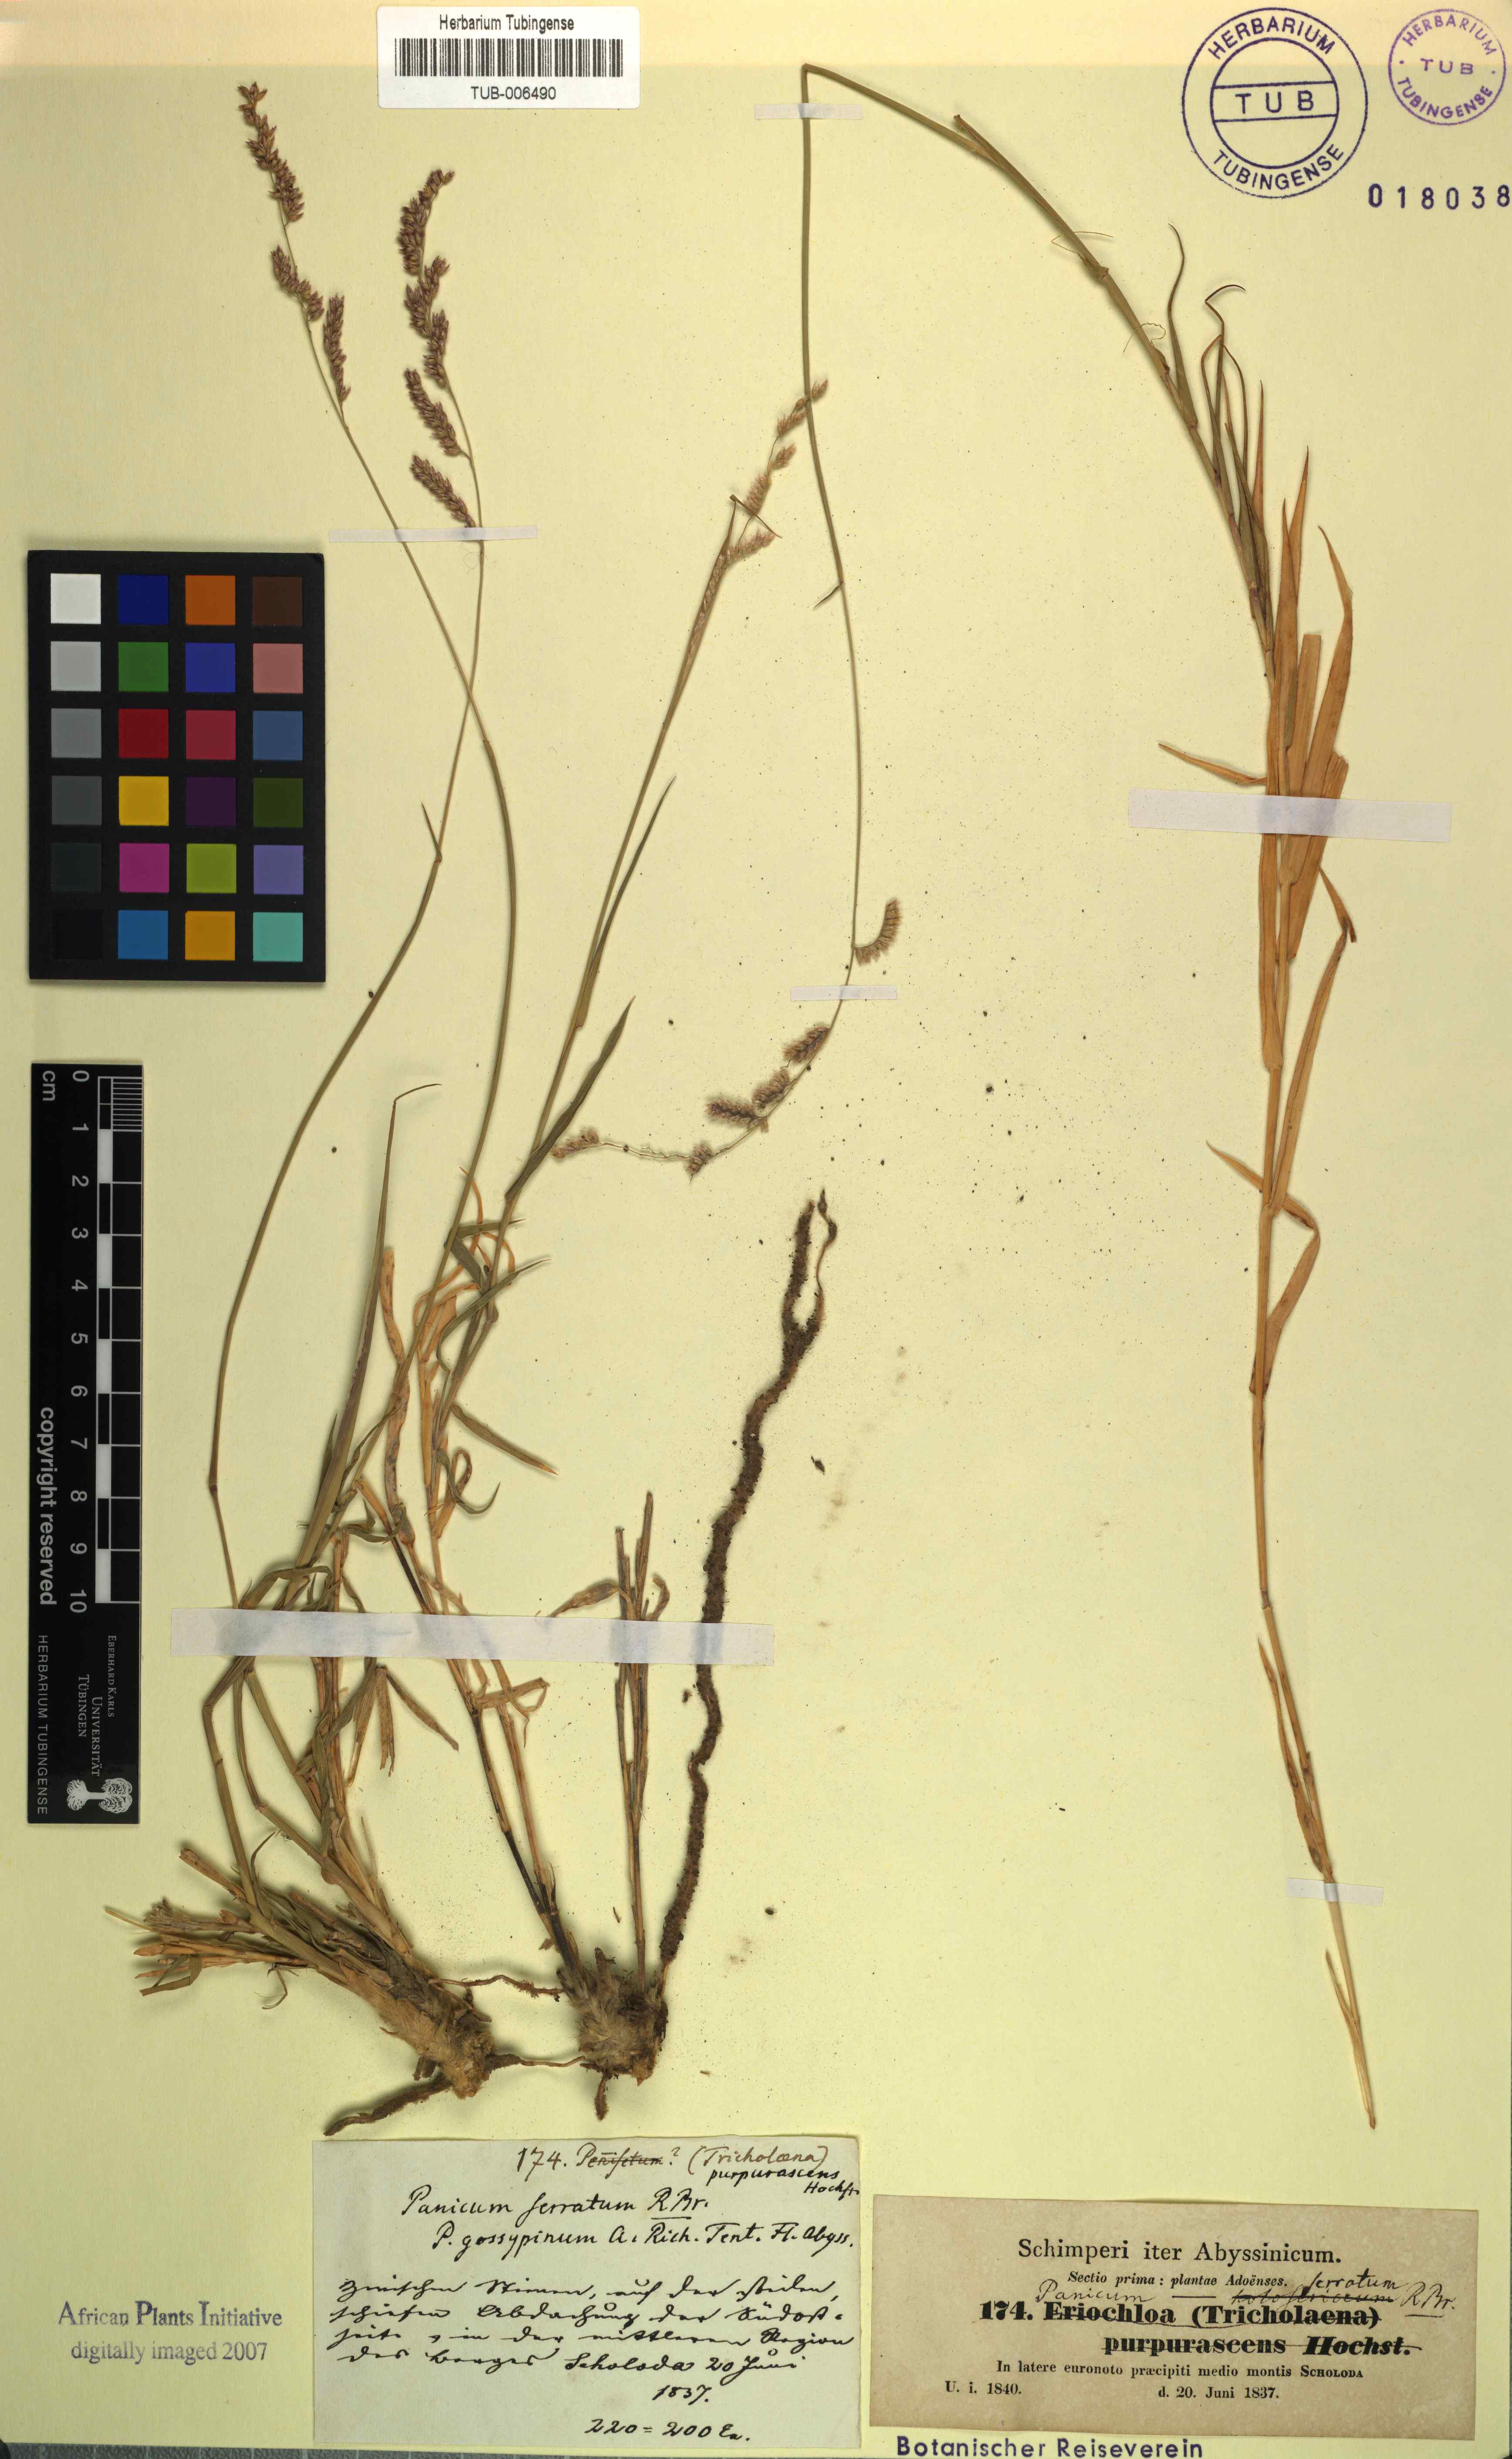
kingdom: Plantae
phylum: Tracheophyta
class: Liliopsida
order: Poales
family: Poaceae
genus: Urochloa
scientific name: Urochloa serrata
